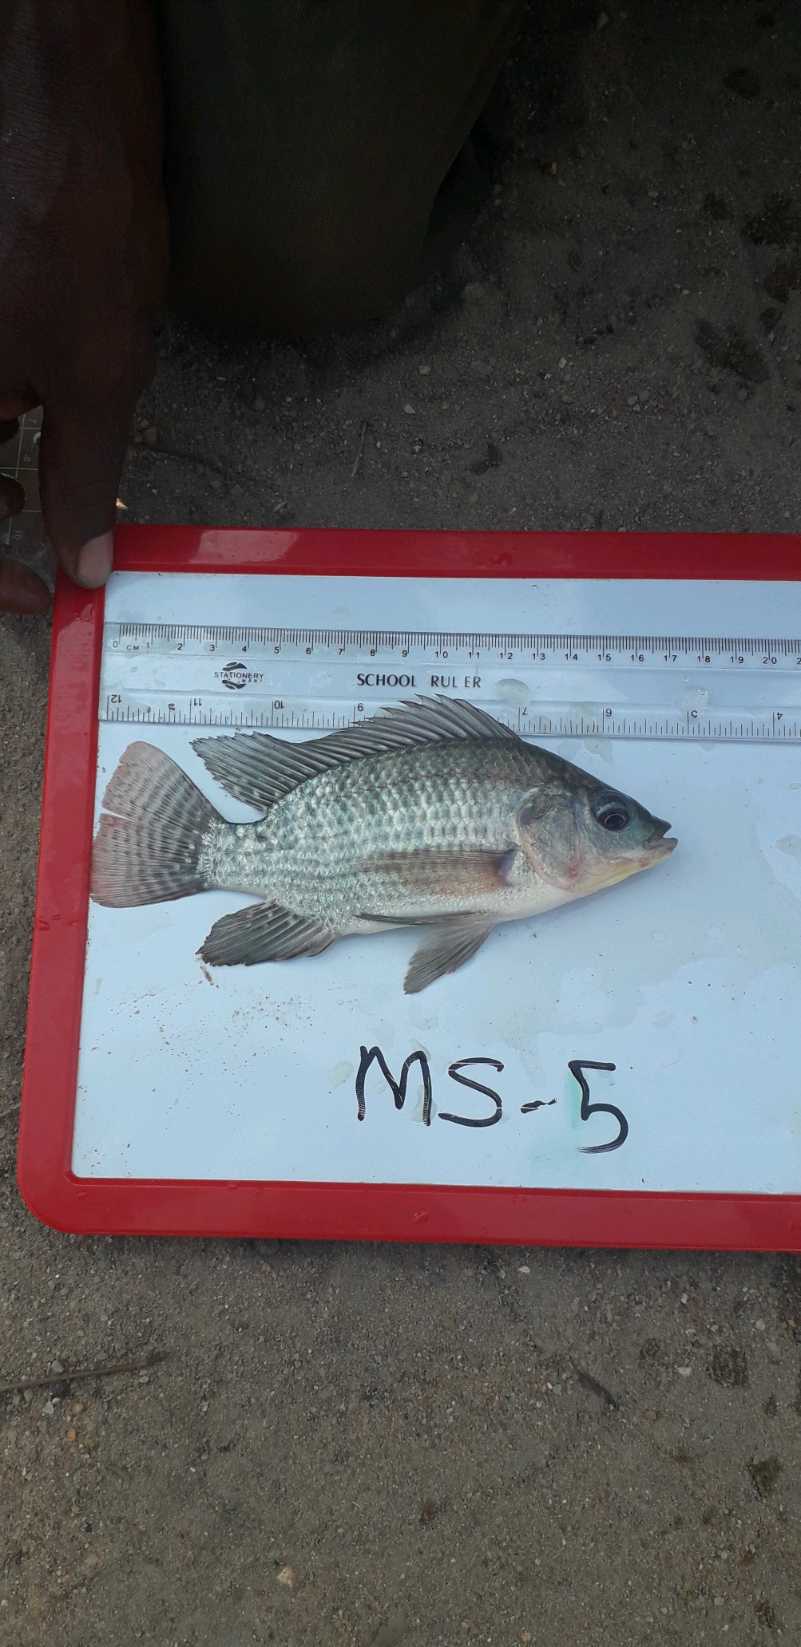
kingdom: Animalia
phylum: Chordata
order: Perciformes
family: Cichlidae
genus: Oreochromis
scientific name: Oreochromis niloticus
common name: Nile tilapia
